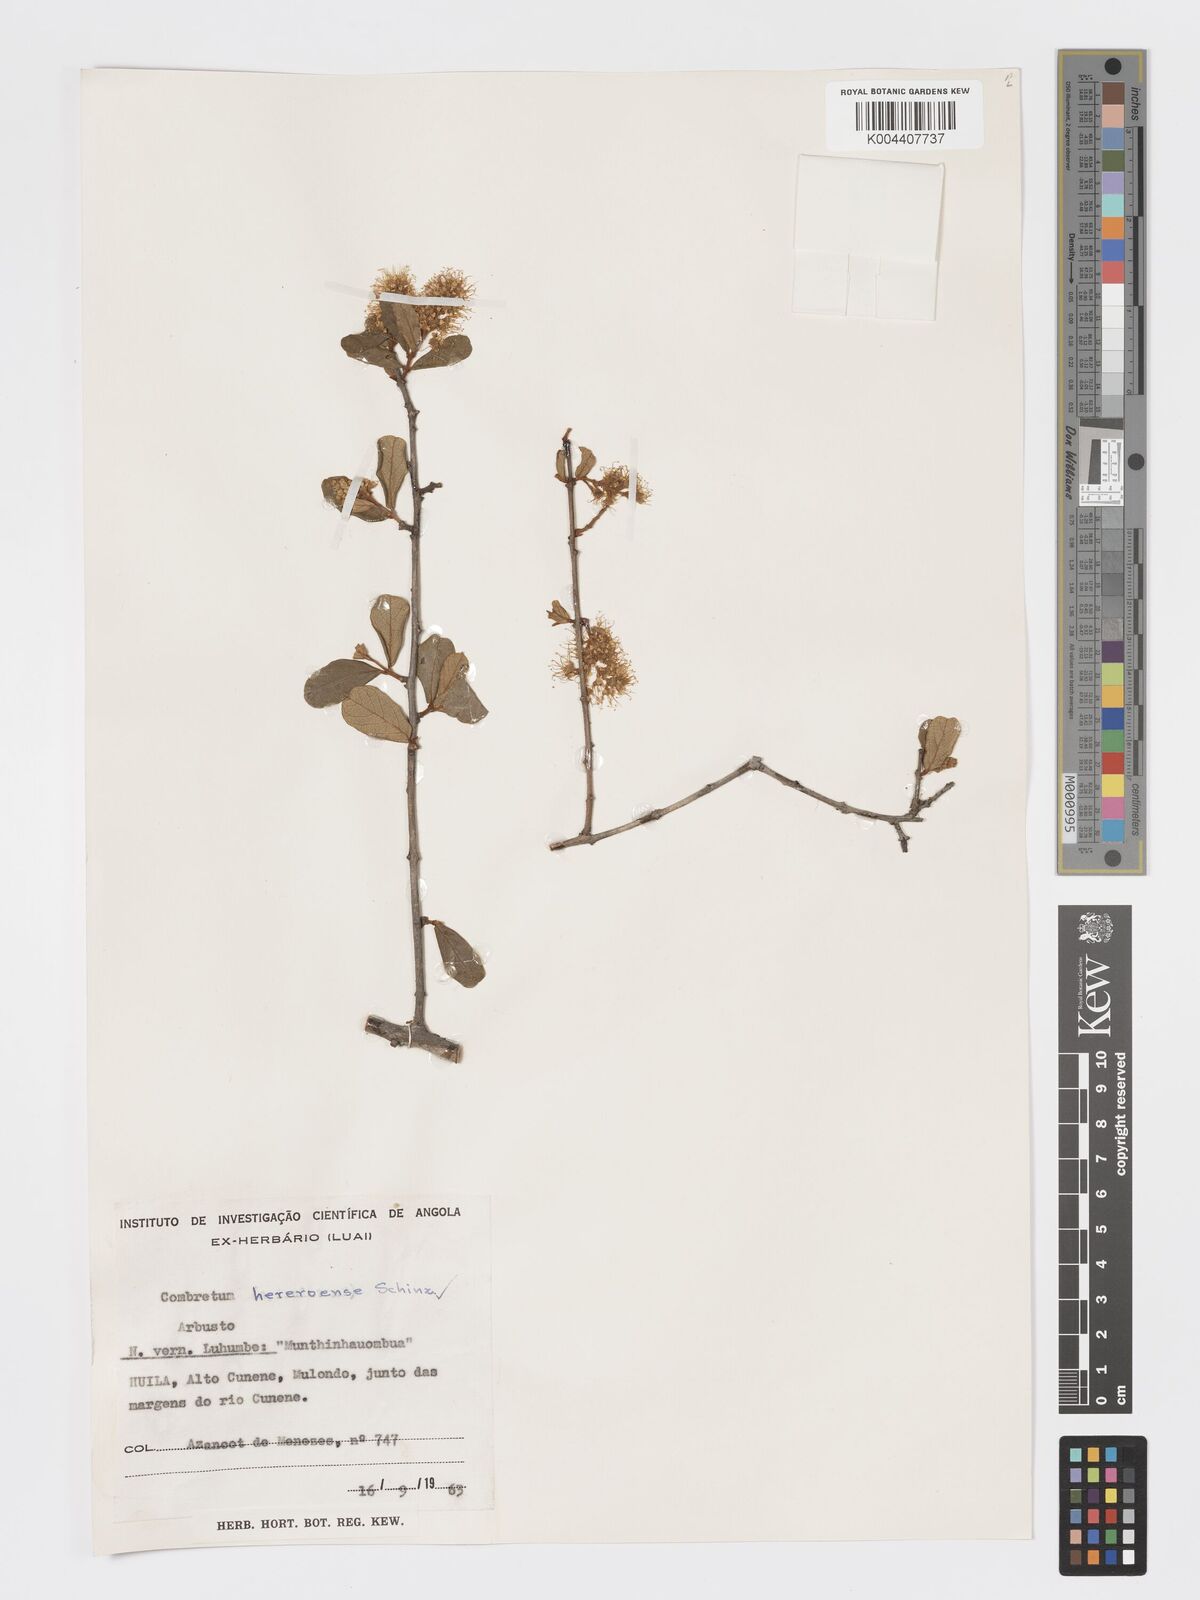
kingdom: Plantae
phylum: Tracheophyta
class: Magnoliopsida
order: Myrtales
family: Combretaceae
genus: Combretum
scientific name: Combretum hereroense
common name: Russet bushwillow
